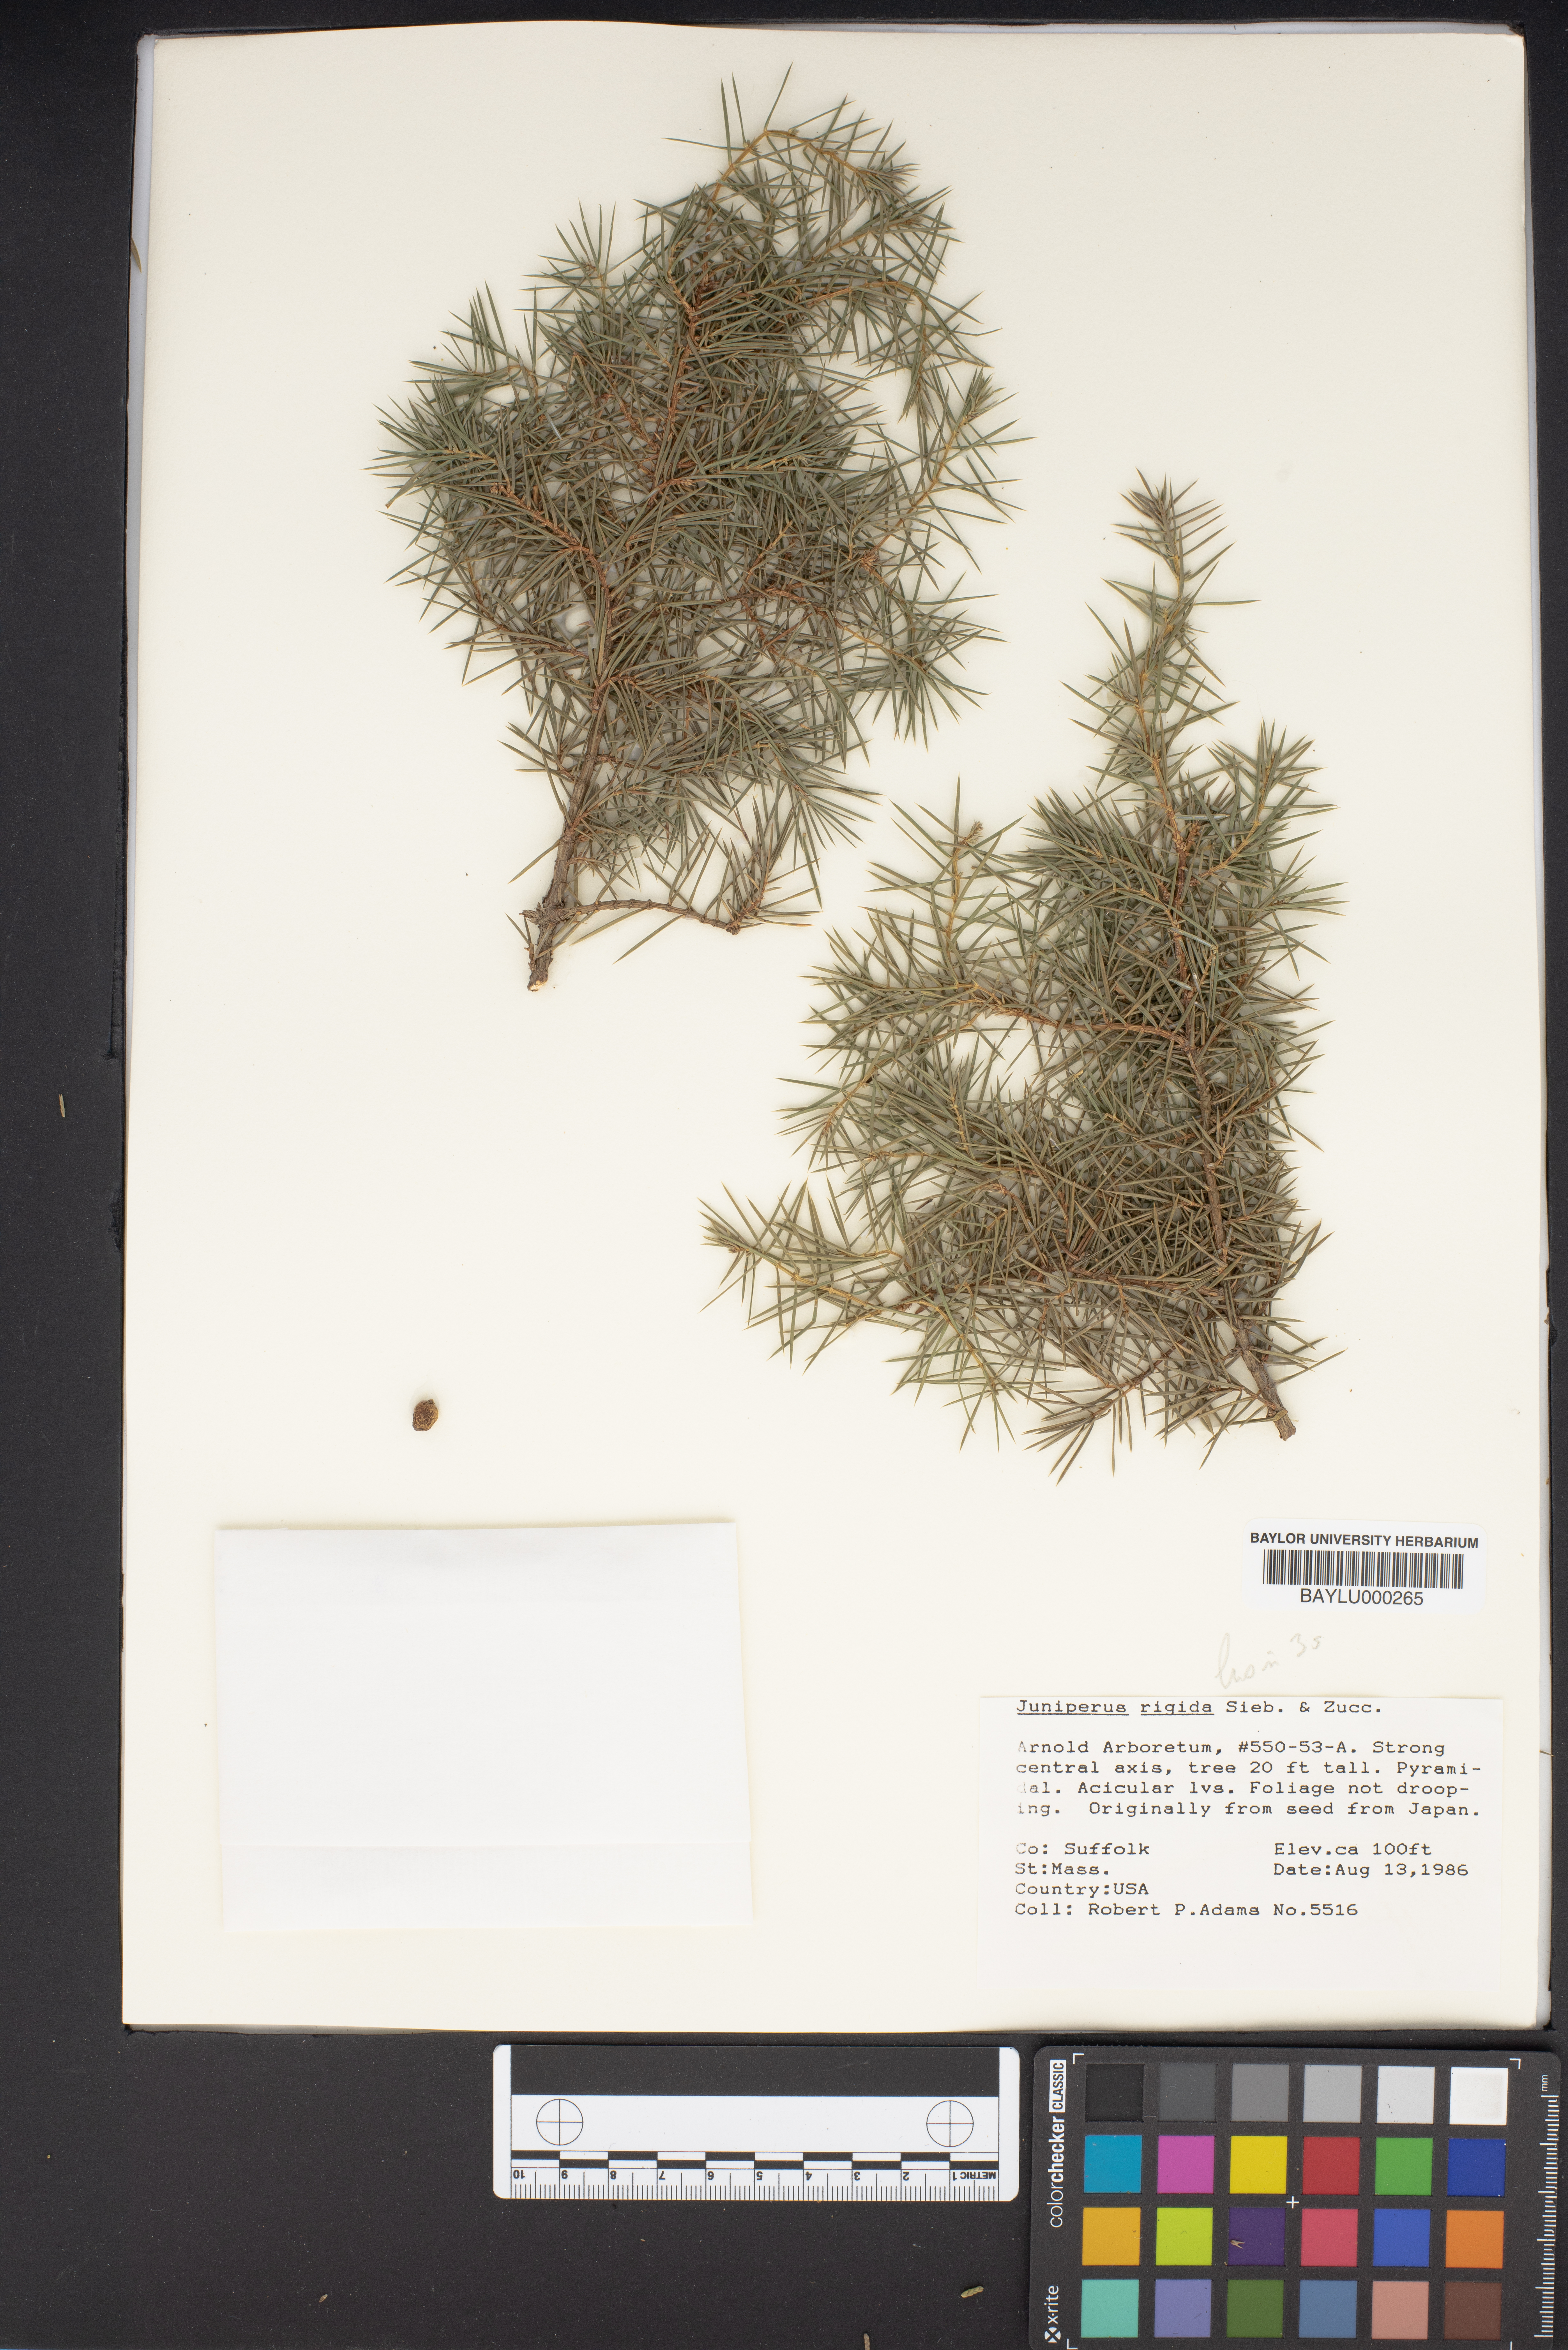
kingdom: Plantae
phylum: Tracheophyta
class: Pinopsida
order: Pinales
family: Cupressaceae
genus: Juniperus
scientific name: Juniperus rigida
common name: Needle juniper
